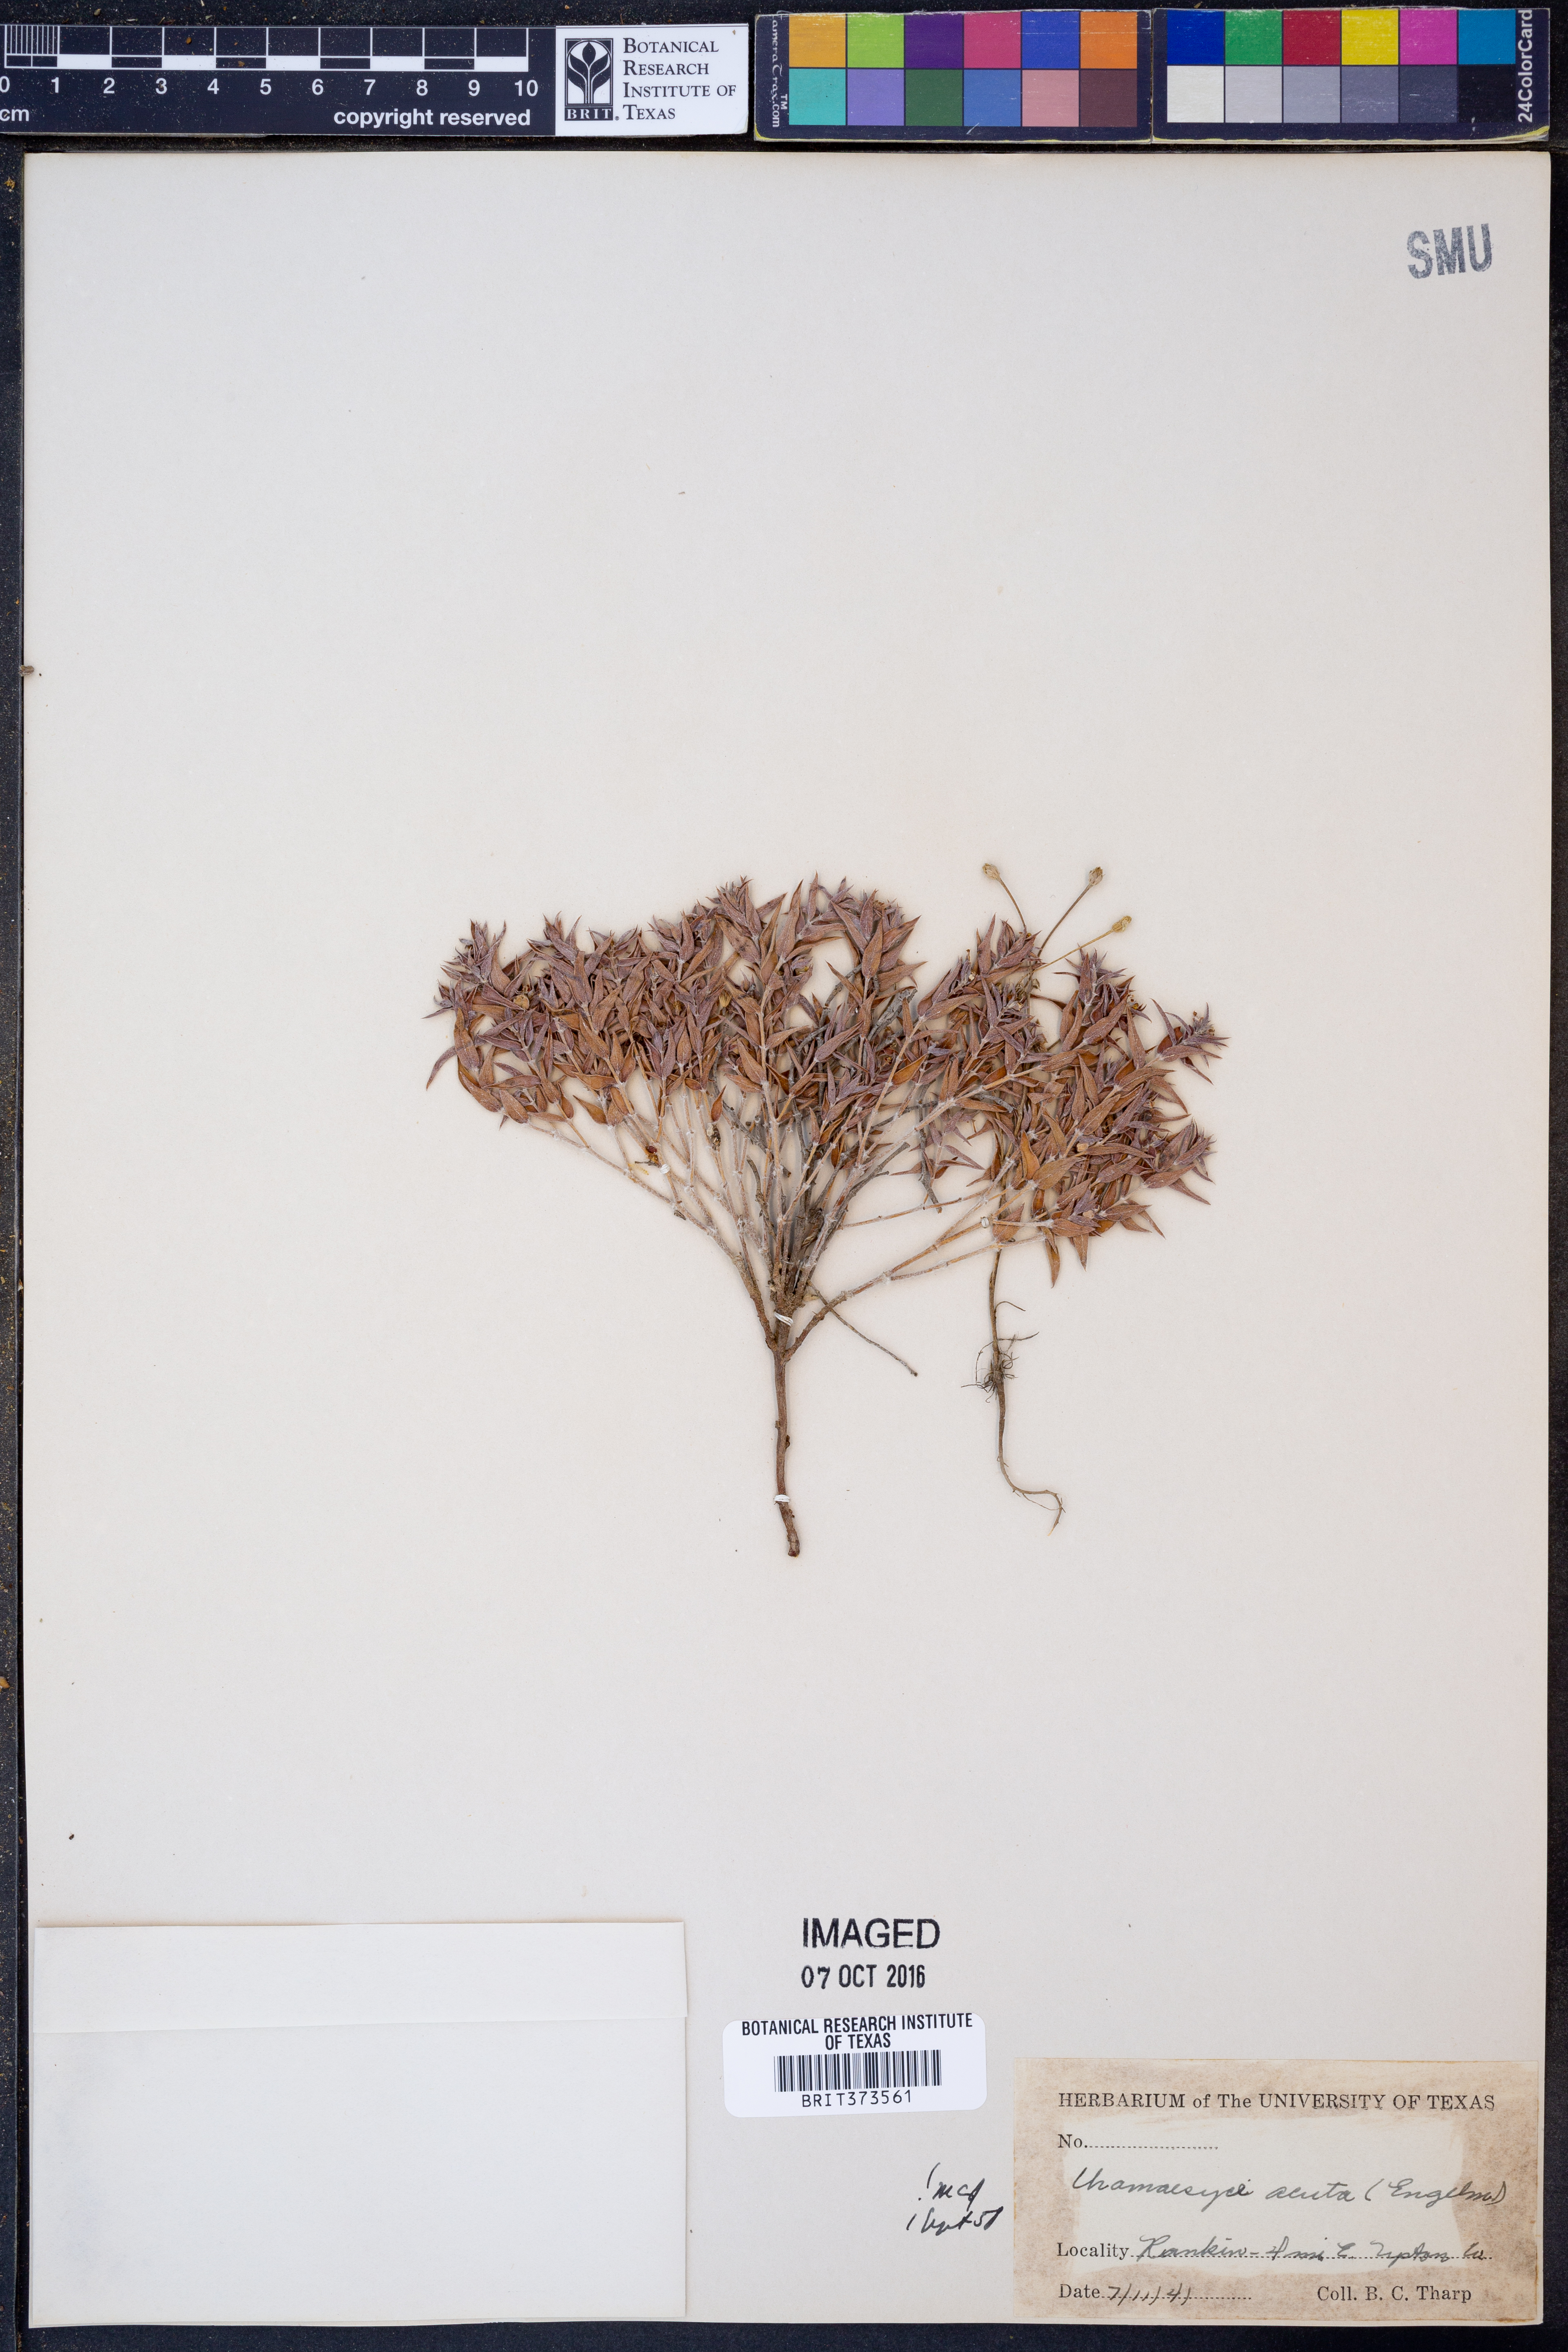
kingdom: Plantae
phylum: Tracheophyta
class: Magnoliopsida
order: Malpighiales
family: Euphorbiaceae
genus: Euphorbia
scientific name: Euphorbia acuta
